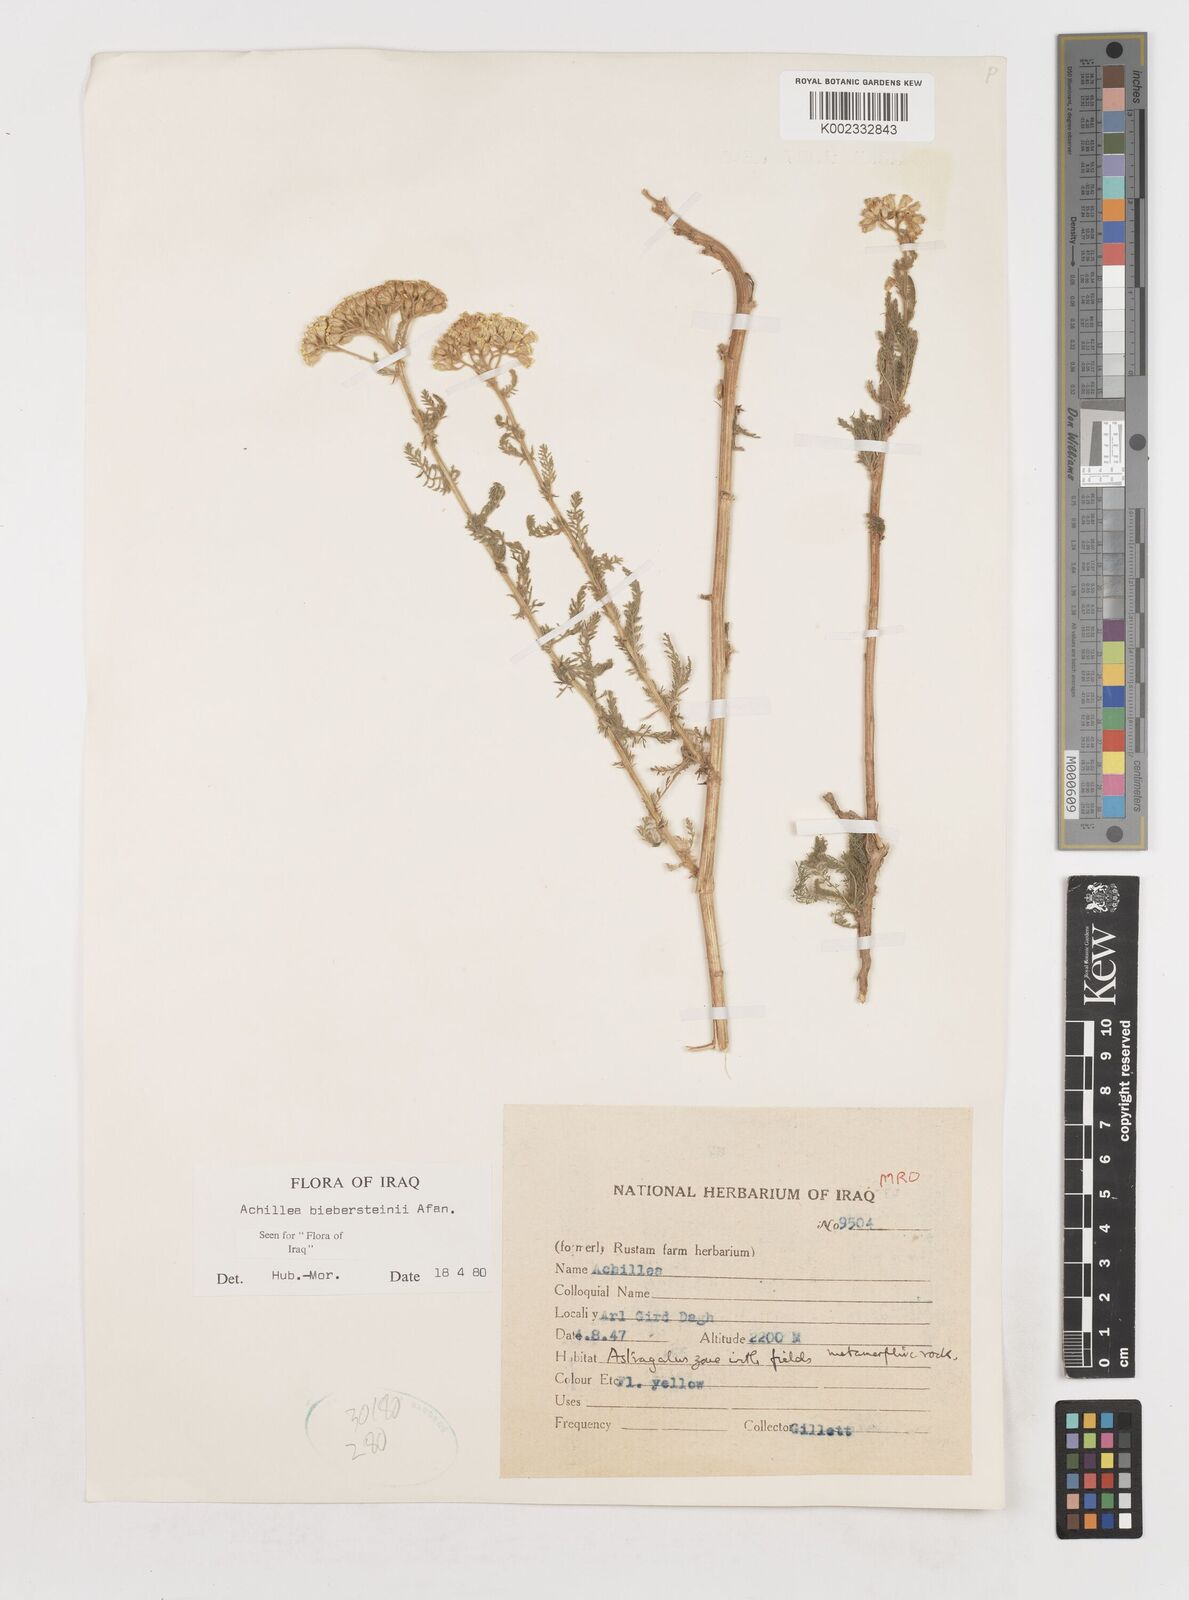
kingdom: Plantae
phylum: Tracheophyta
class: Magnoliopsida
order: Asterales
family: Asteraceae
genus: Achillea
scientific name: Achillea arabica
